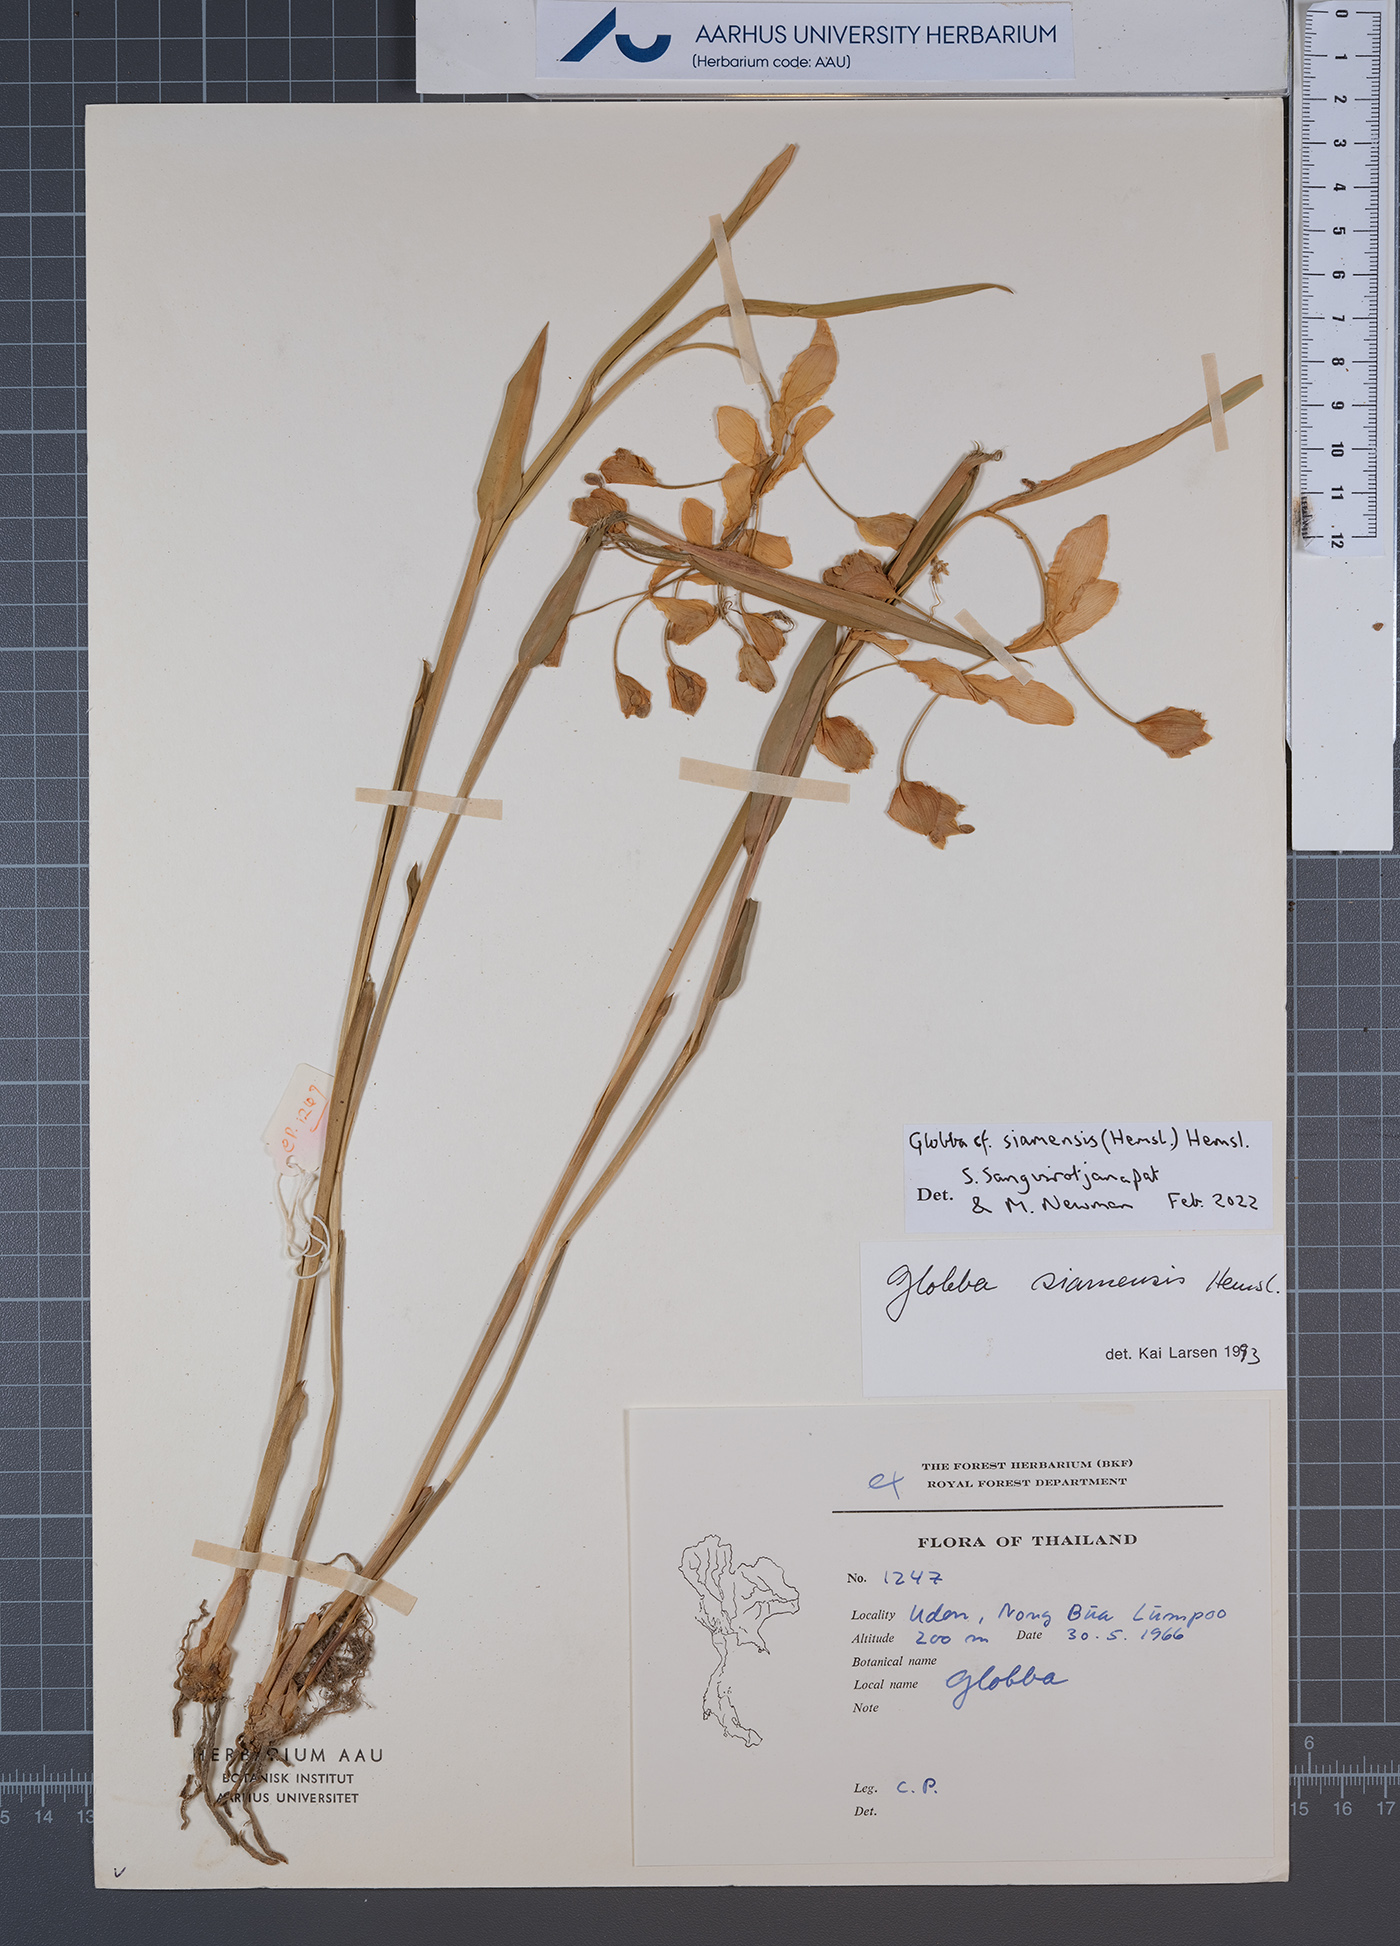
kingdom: Plantae
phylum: Tracheophyta
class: Liliopsida
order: Zingiberales
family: Zingiberaceae
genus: Globba
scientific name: Globba siamensis
